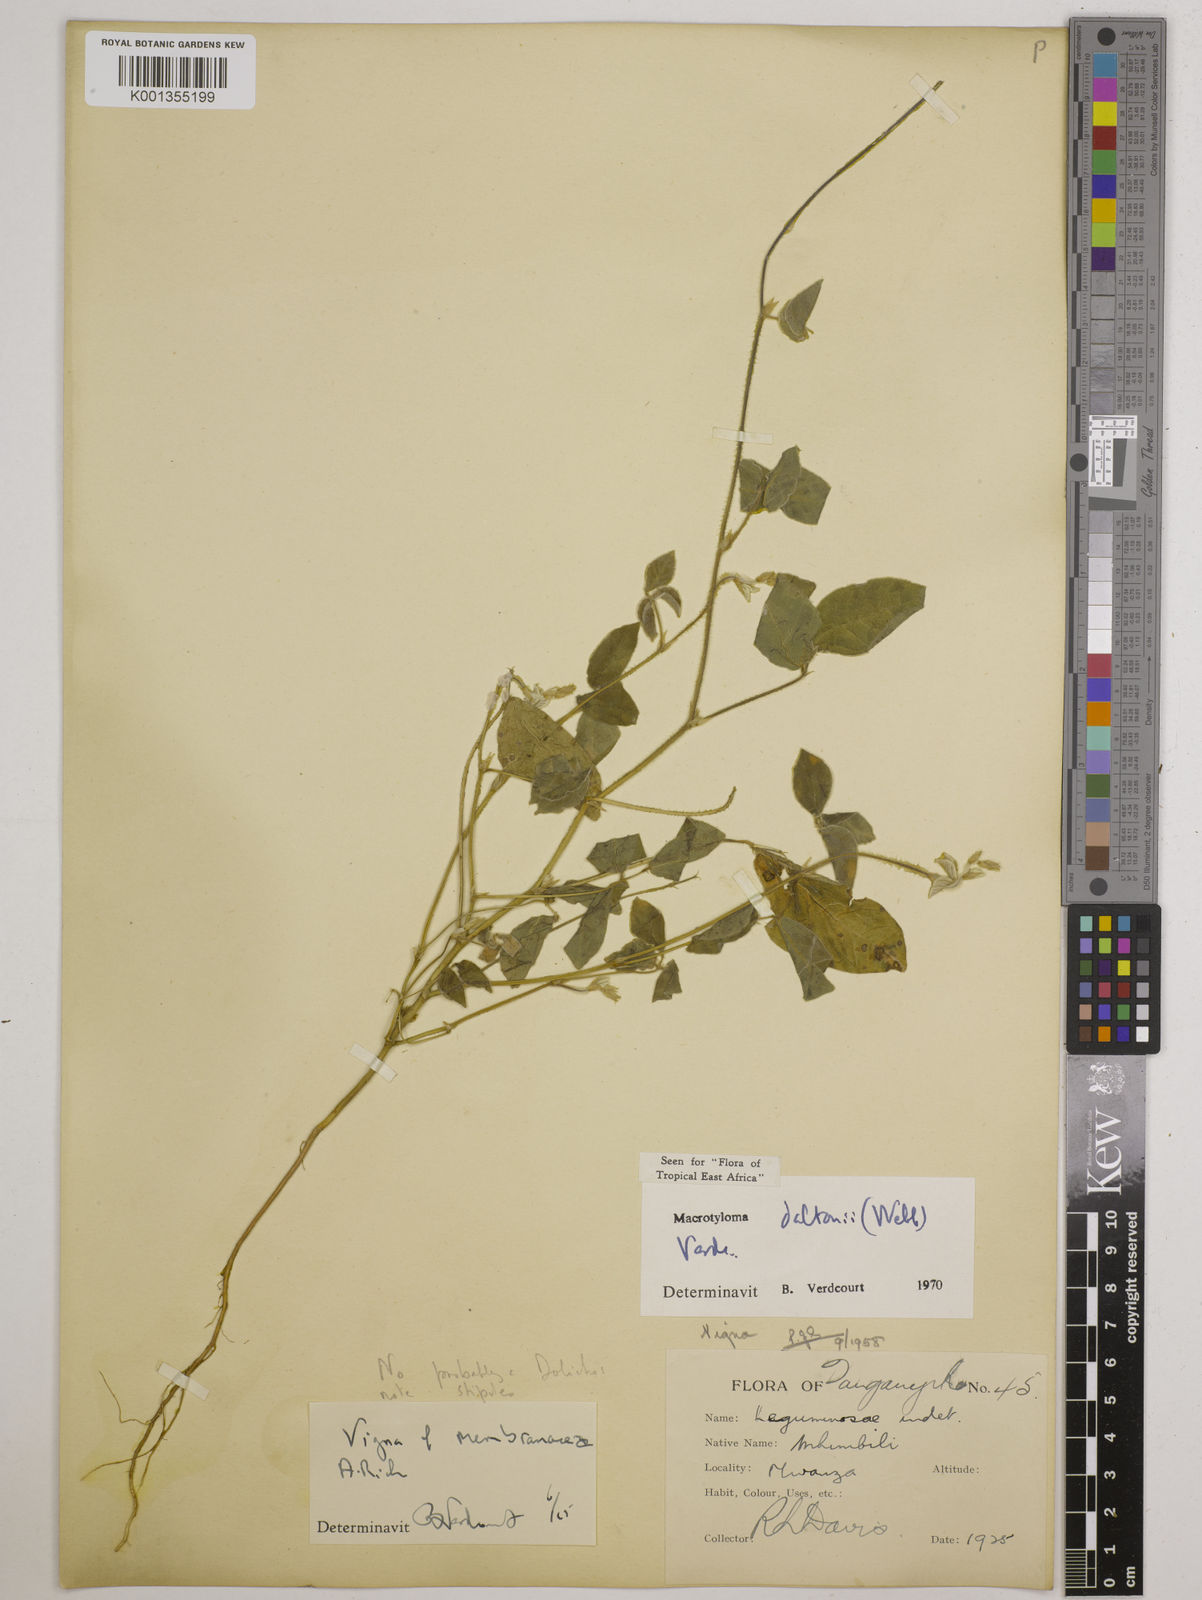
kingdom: Plantae
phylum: Tracheophyta
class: Magnoliopsida
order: Fabales
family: Fabaceae
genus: Macrotyloma
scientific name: Macrotyloma daltonii
